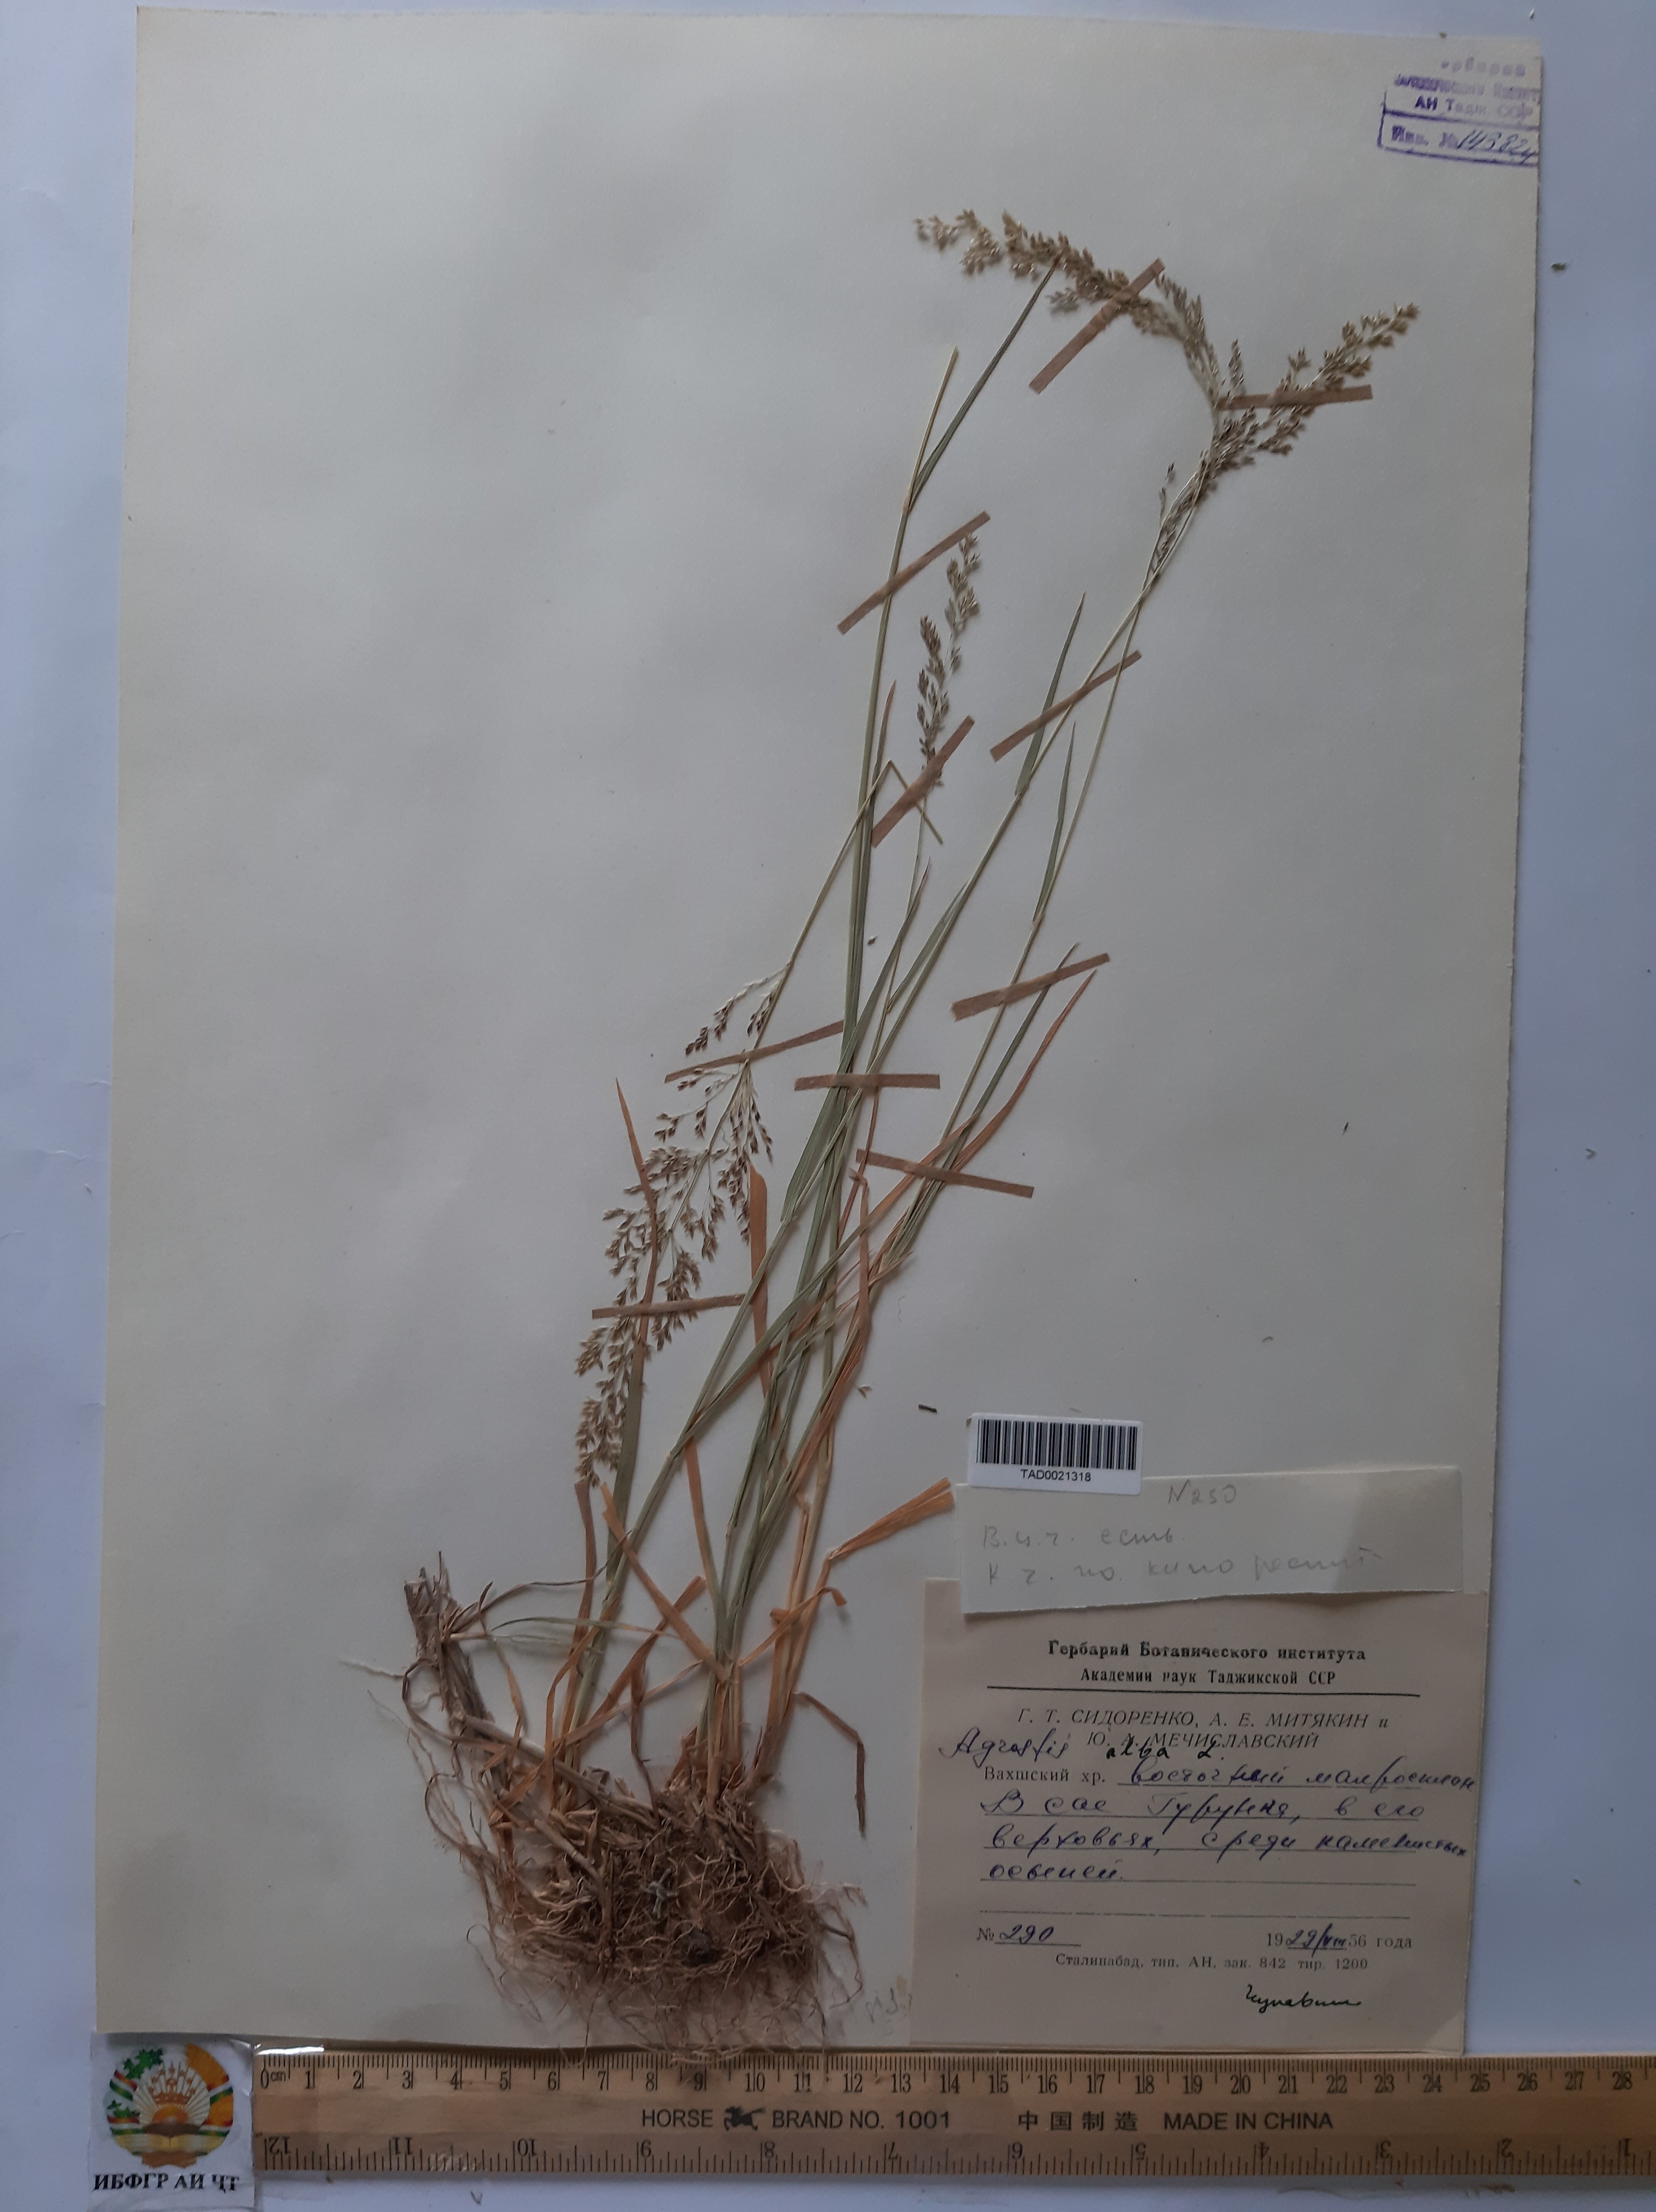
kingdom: Plantae
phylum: Tracheophyta
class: Liliopsida
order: Poales
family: Poaceae
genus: Poa
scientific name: Poa nemoralis
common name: Wood bluegrass
